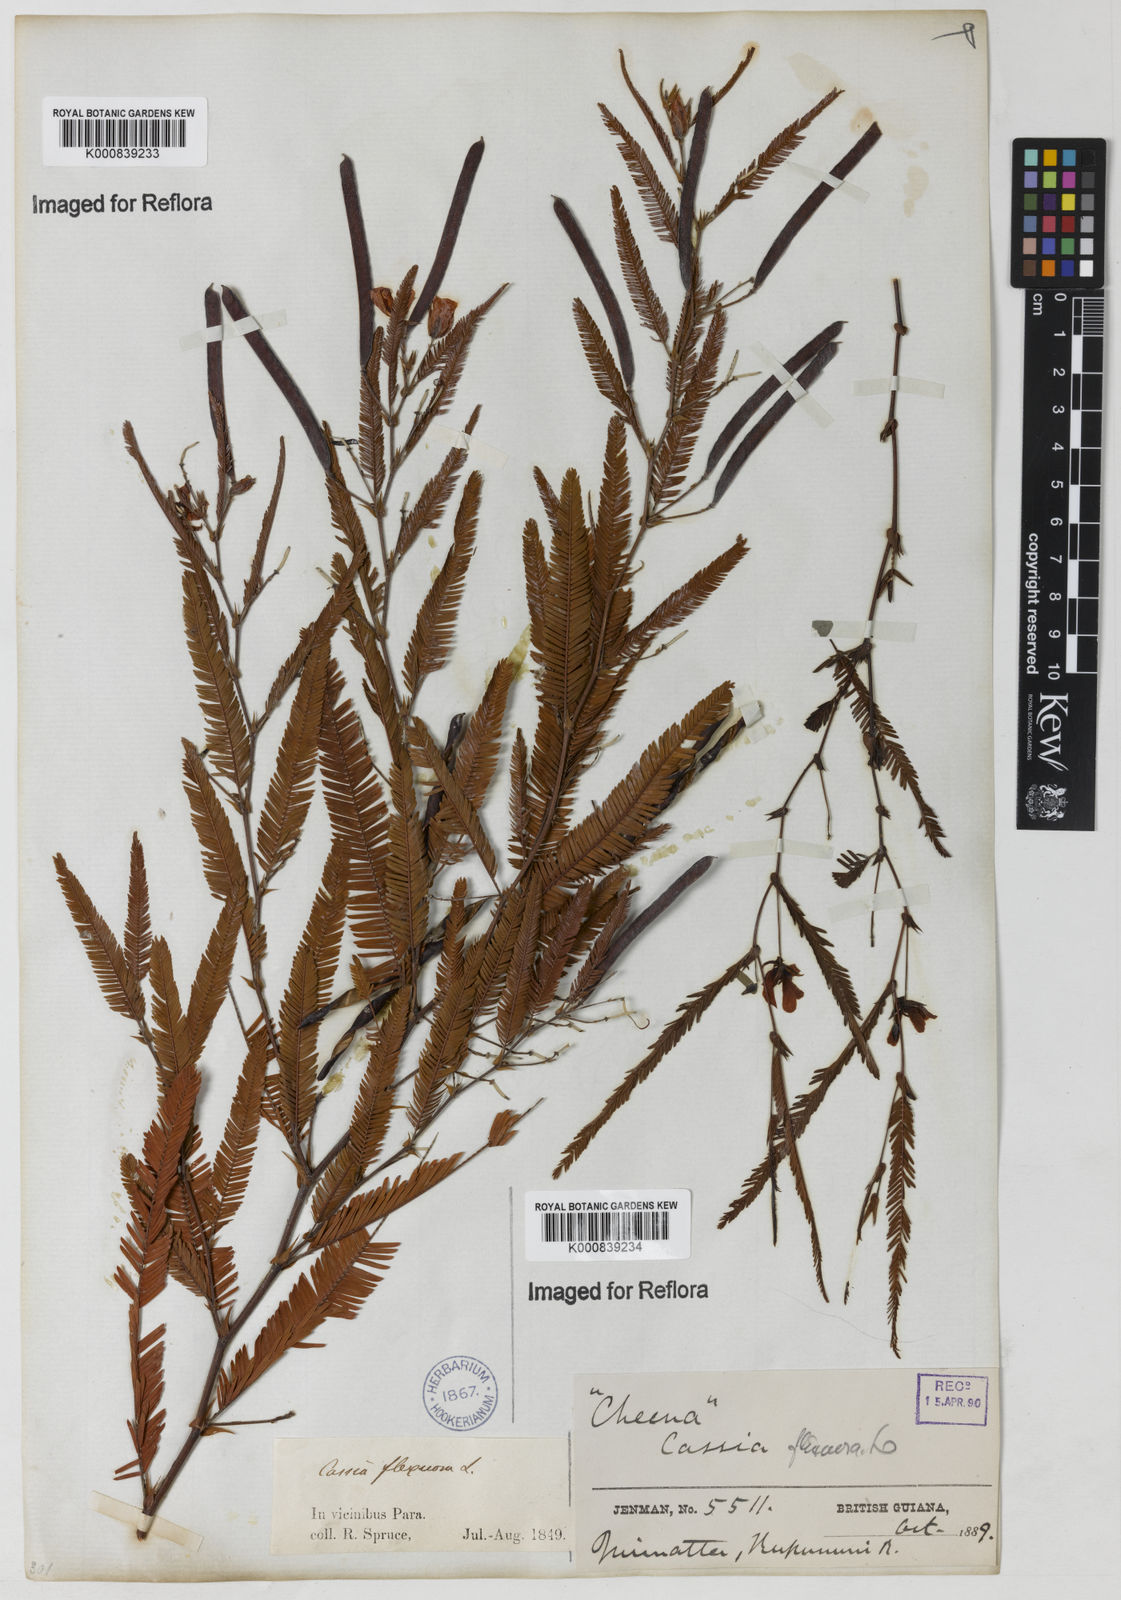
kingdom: Plantae
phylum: Tracheophyta
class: Magnoliopsida
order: Fabales
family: Fabaceae
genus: Chamaecrista
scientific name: Chamaecrista flexuosa
